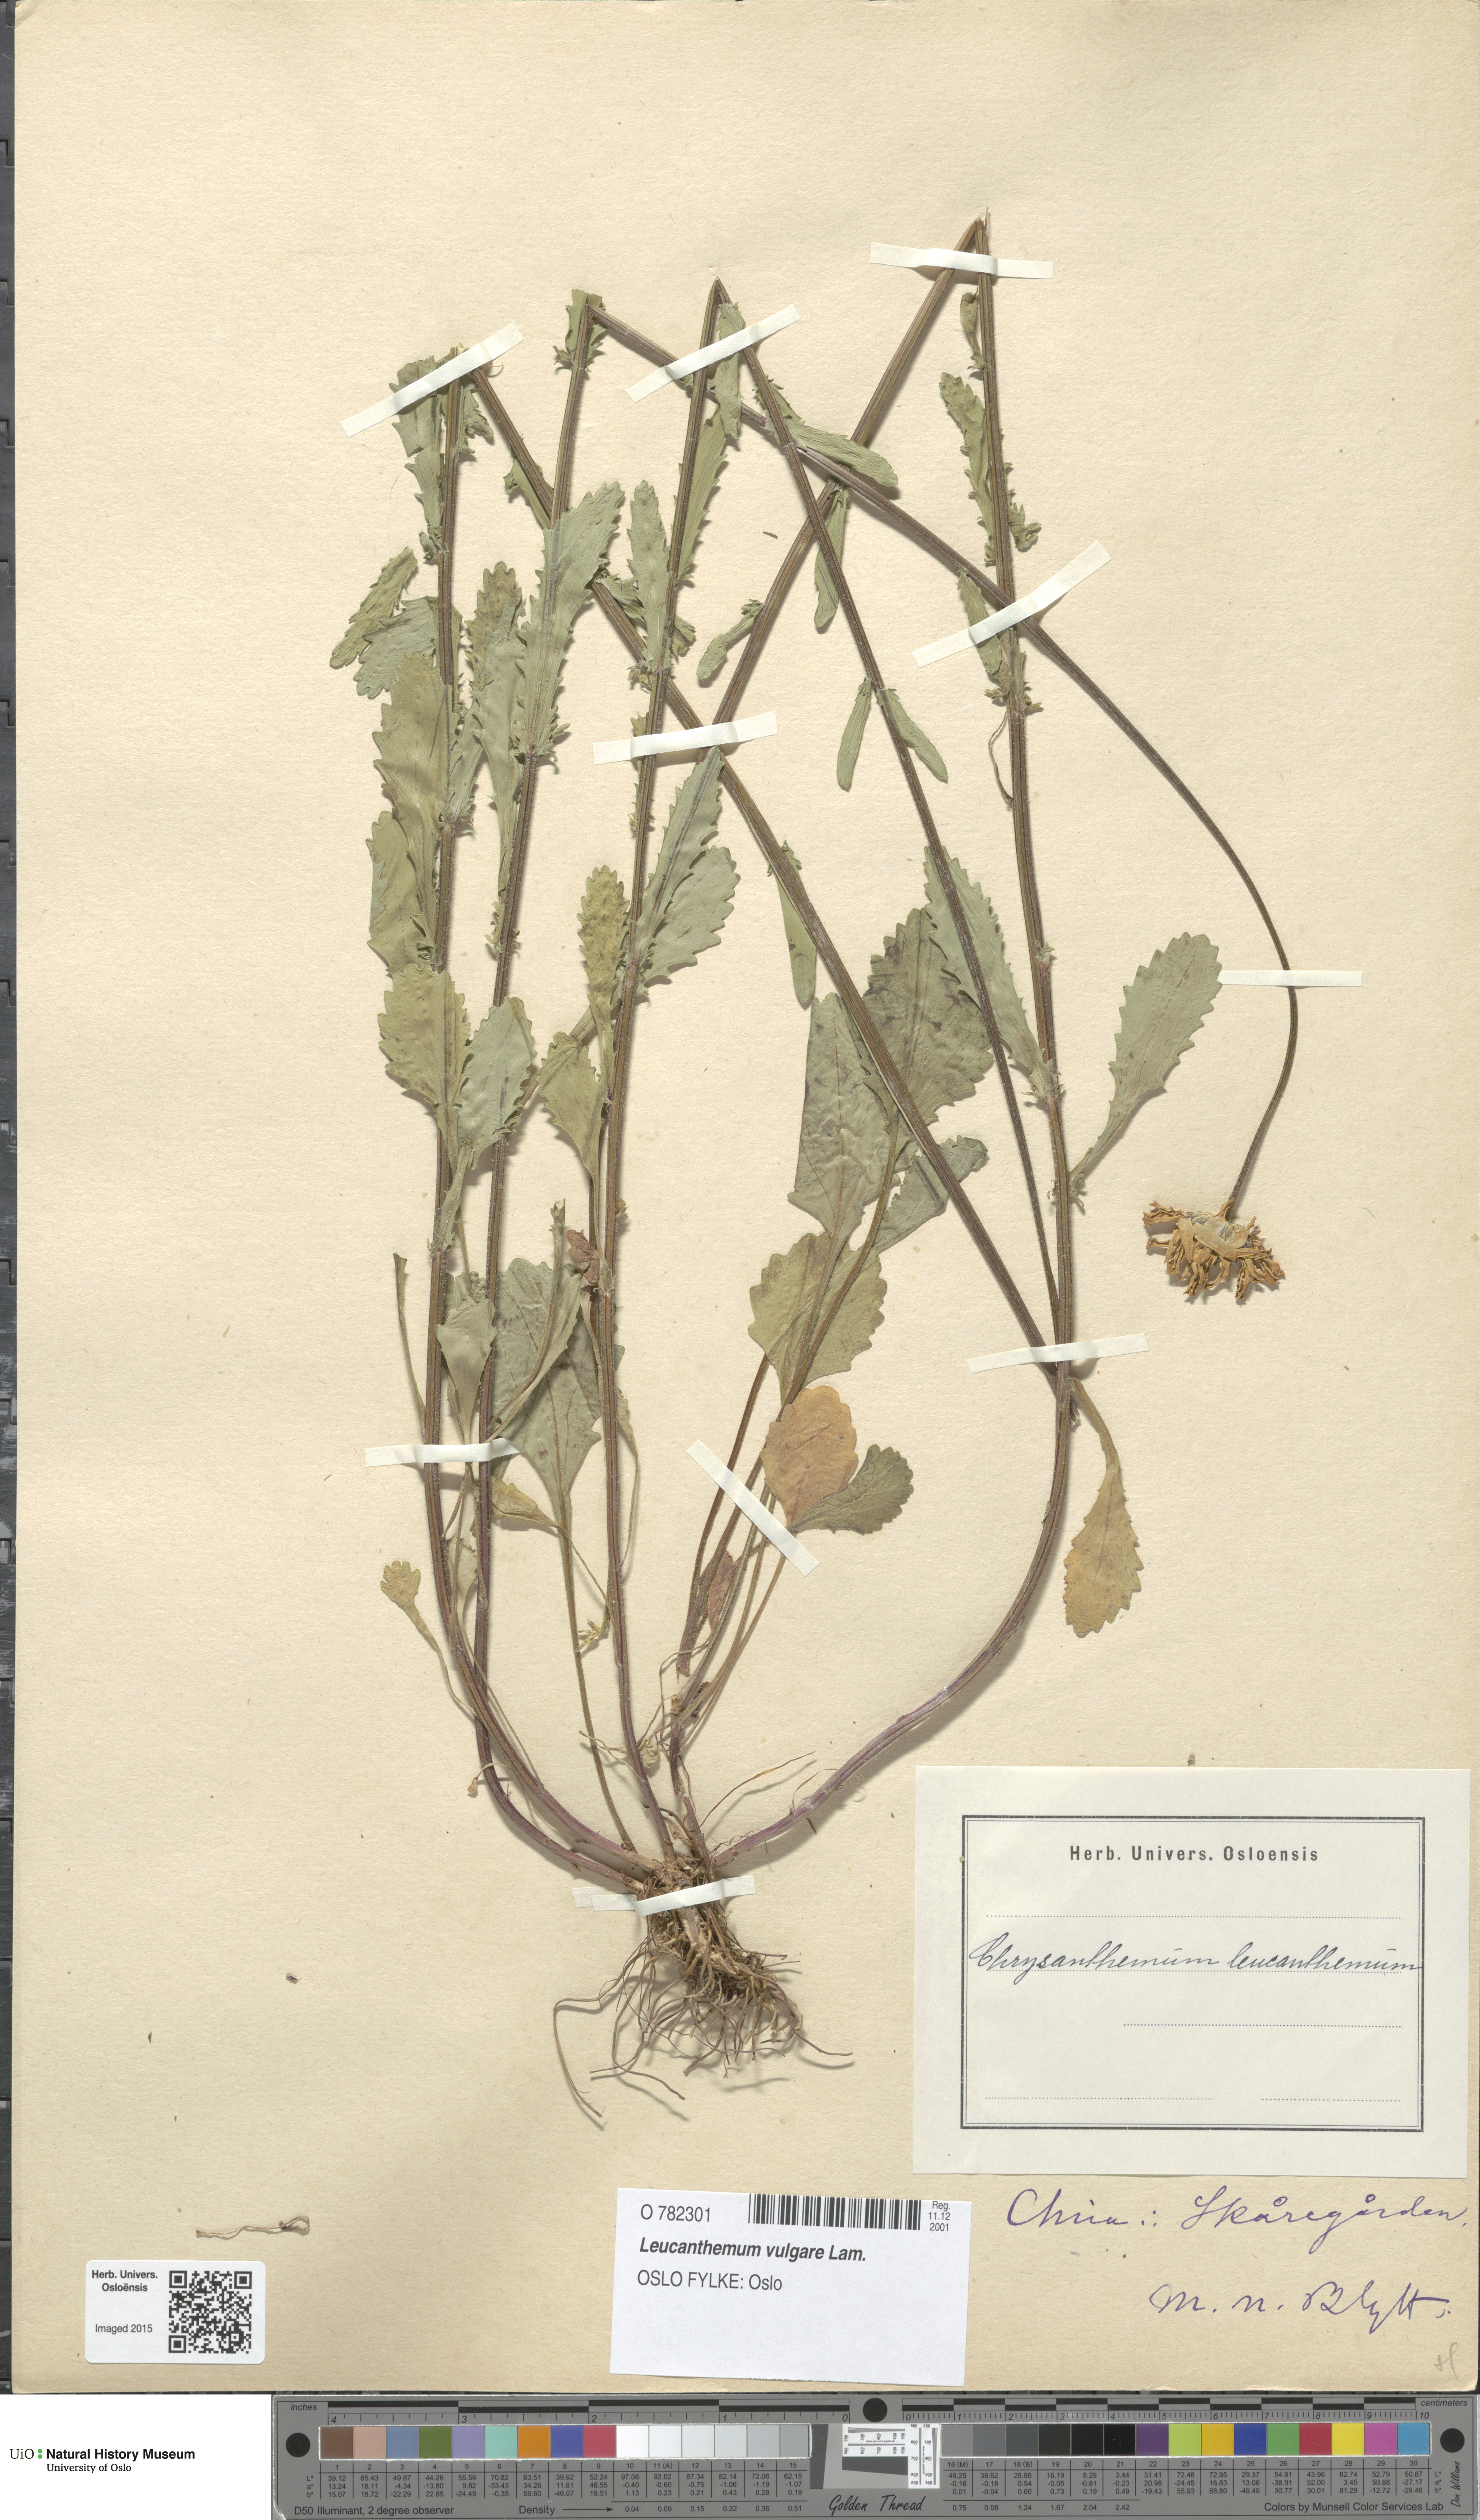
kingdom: Plantae
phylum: Tracheophyta
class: Magnoliopsida
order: Asterales
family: Asteraceae
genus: Leucanthemum
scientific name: Leucanthemum vulgare
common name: Oxeye daisy
